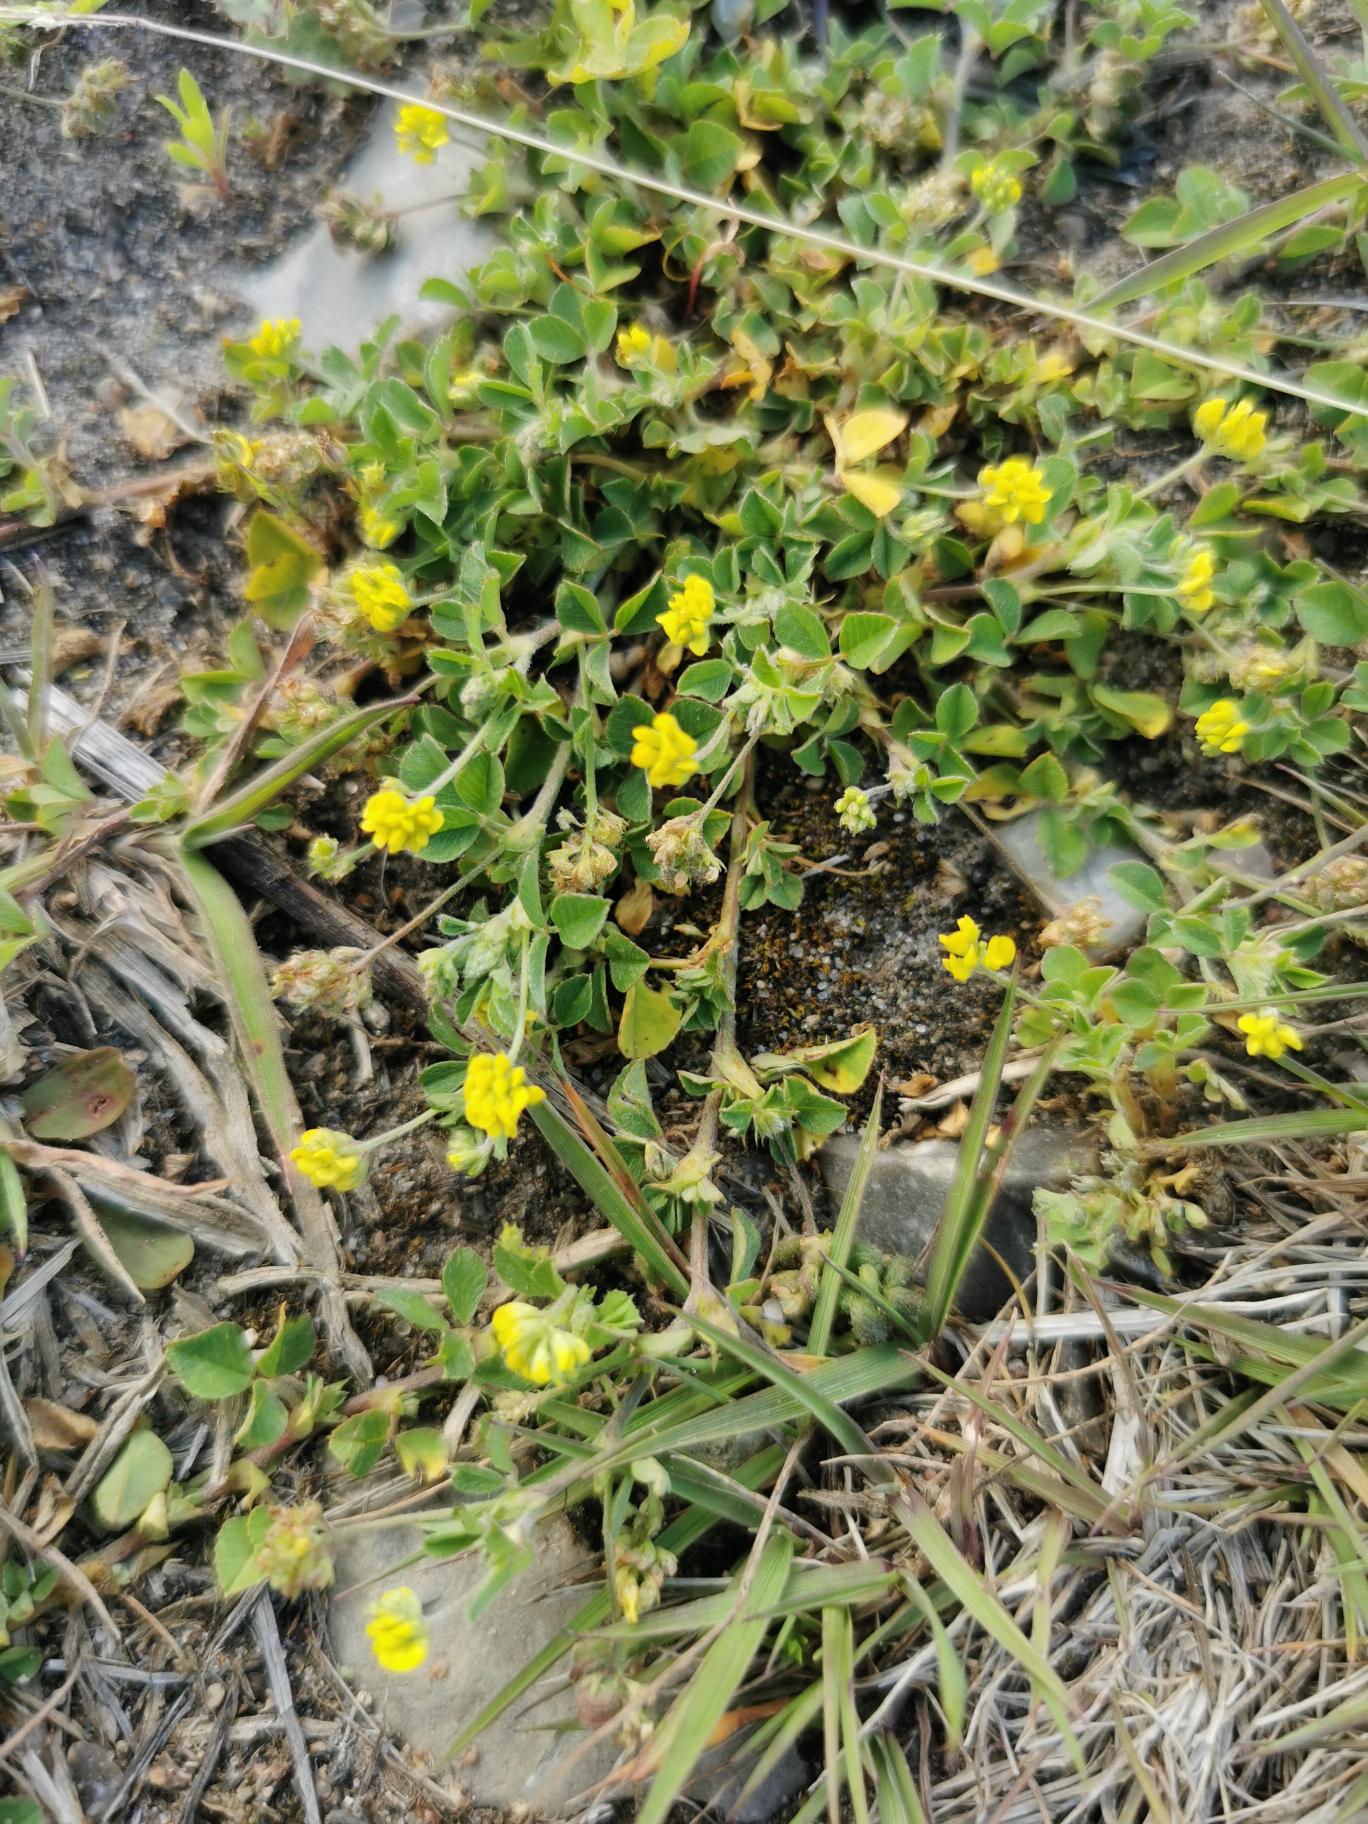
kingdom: Plantae
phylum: Tracheophyta
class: Magnoliopsida
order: Fabales
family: Fabaceae
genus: Medicago
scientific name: Medicago lupulina
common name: Humle-sneglebælg
